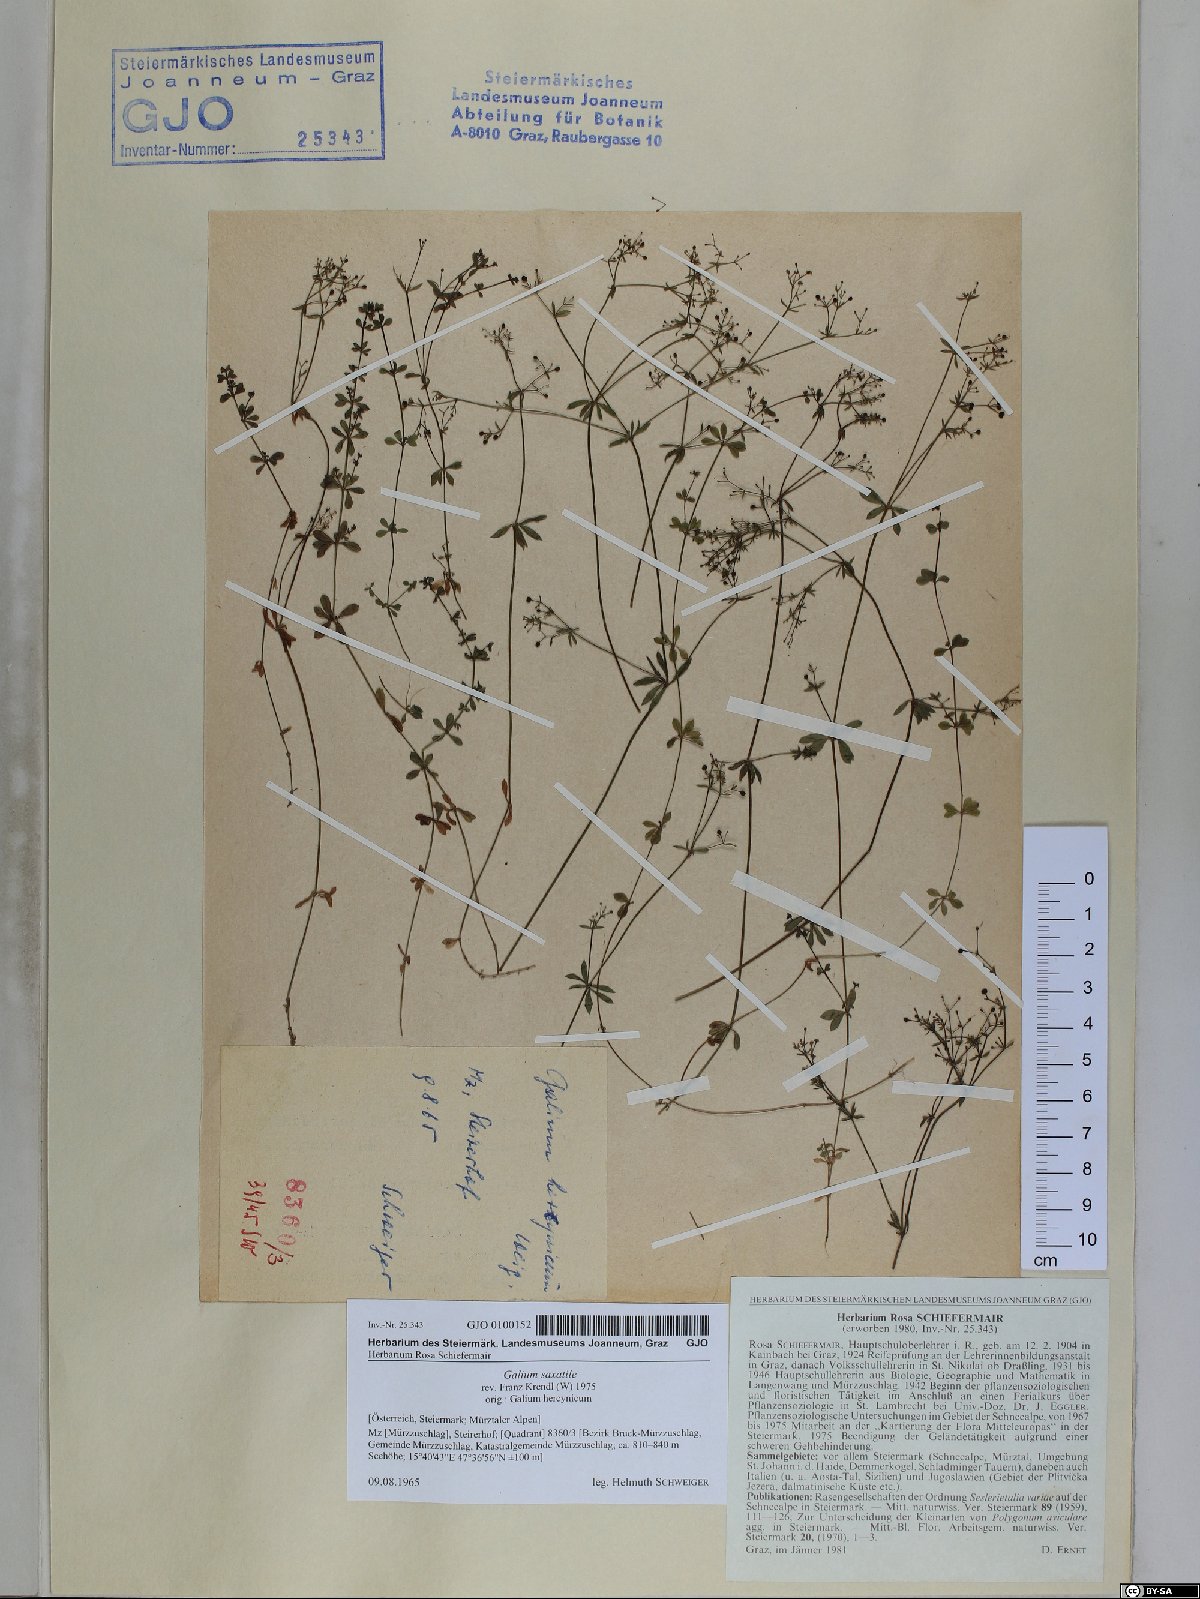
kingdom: Plantae
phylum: Tracheophyta
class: Magnoliopsida
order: Gentianales
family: Rubiaceae
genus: Galium
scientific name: Galium saxatile
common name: Heath bedstraw
